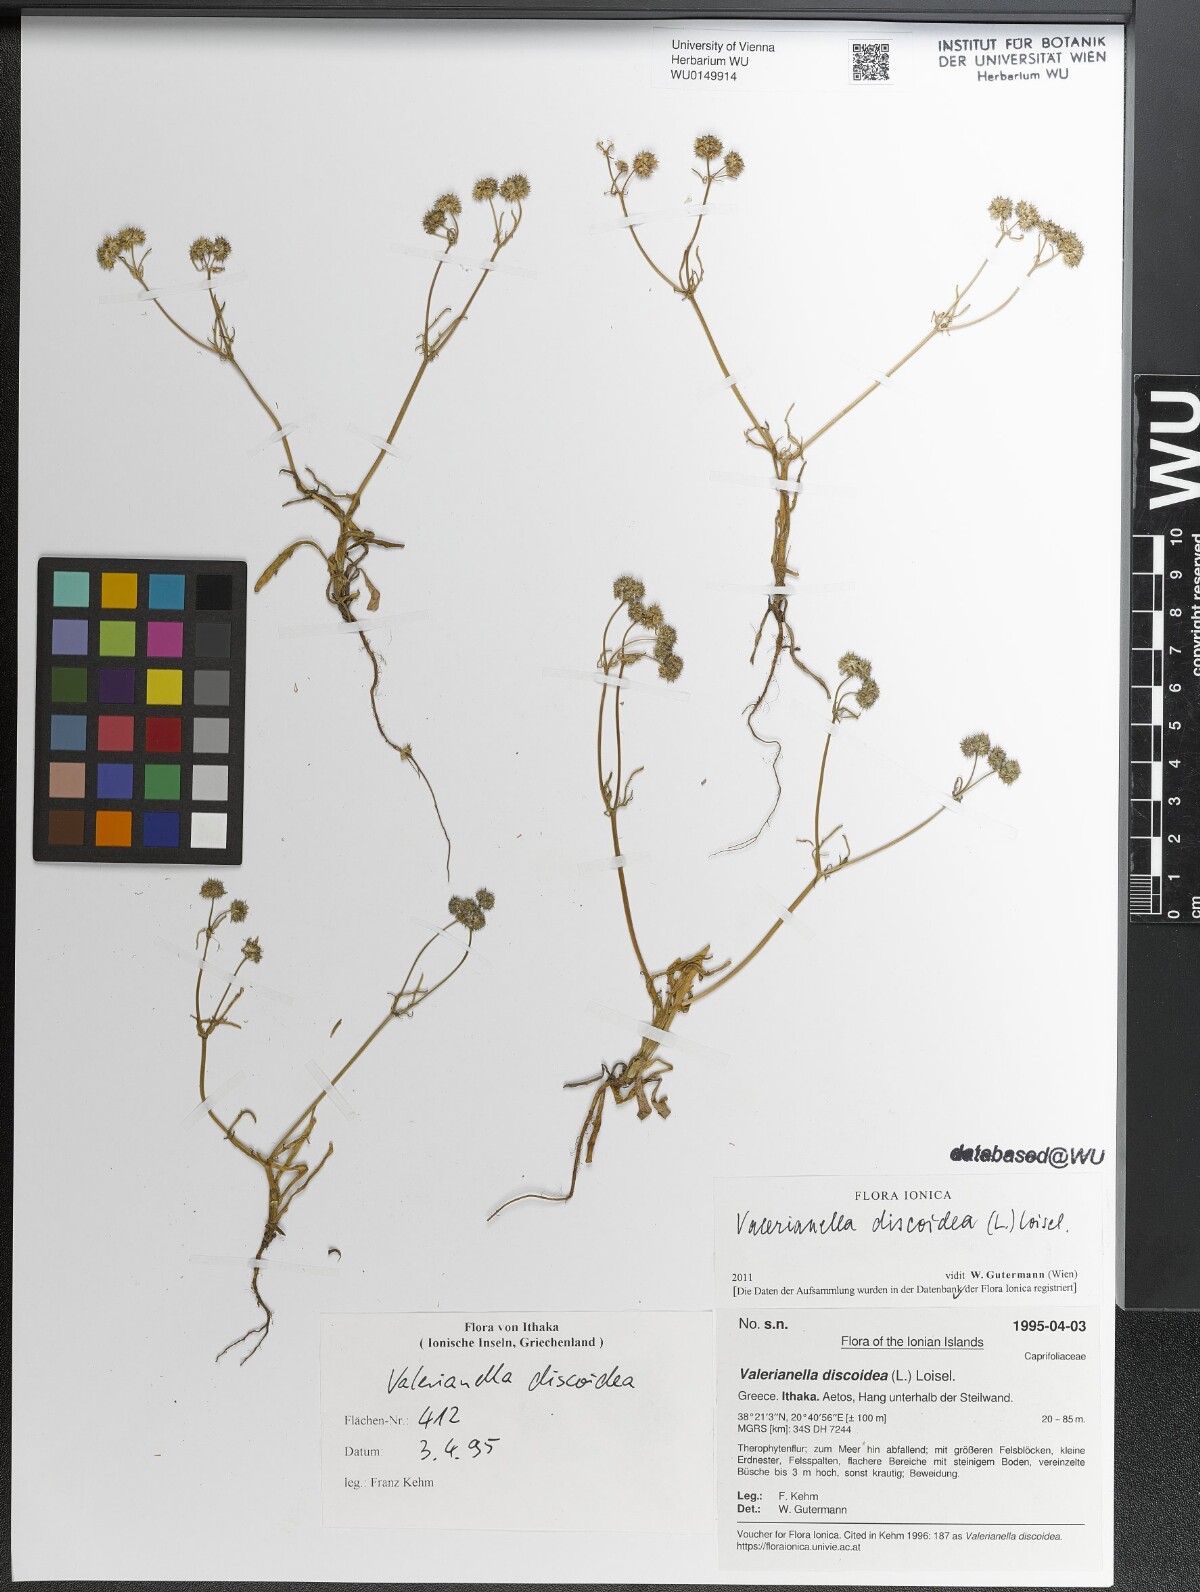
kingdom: Plantae
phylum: Tracheophyta
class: Magnoliopsida
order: Dipsacales
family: Caprifoliaceae
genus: Valerianella
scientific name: Valerianella discoidea
